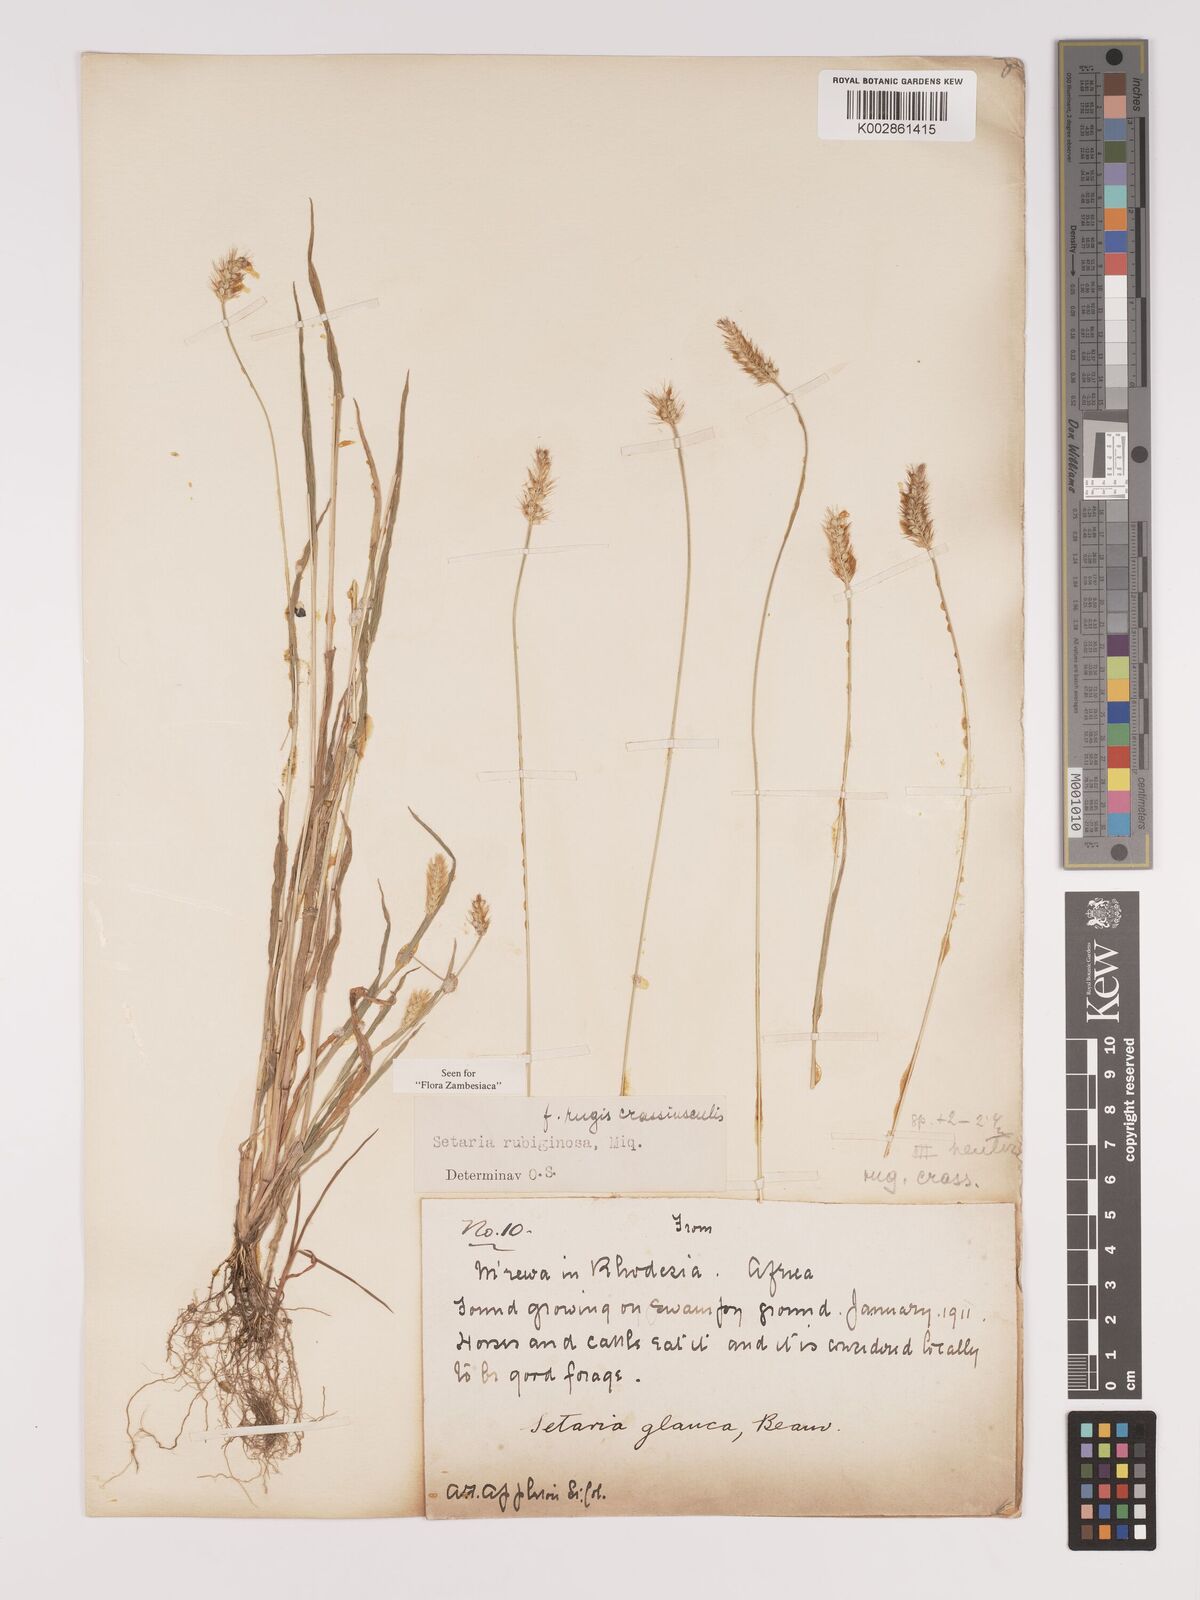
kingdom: Plantae
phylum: Tracheophyta
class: Liliopsida
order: Poales
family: Poaceae
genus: Setaria
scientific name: Setaria pumila
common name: Yellow bristle-grass
